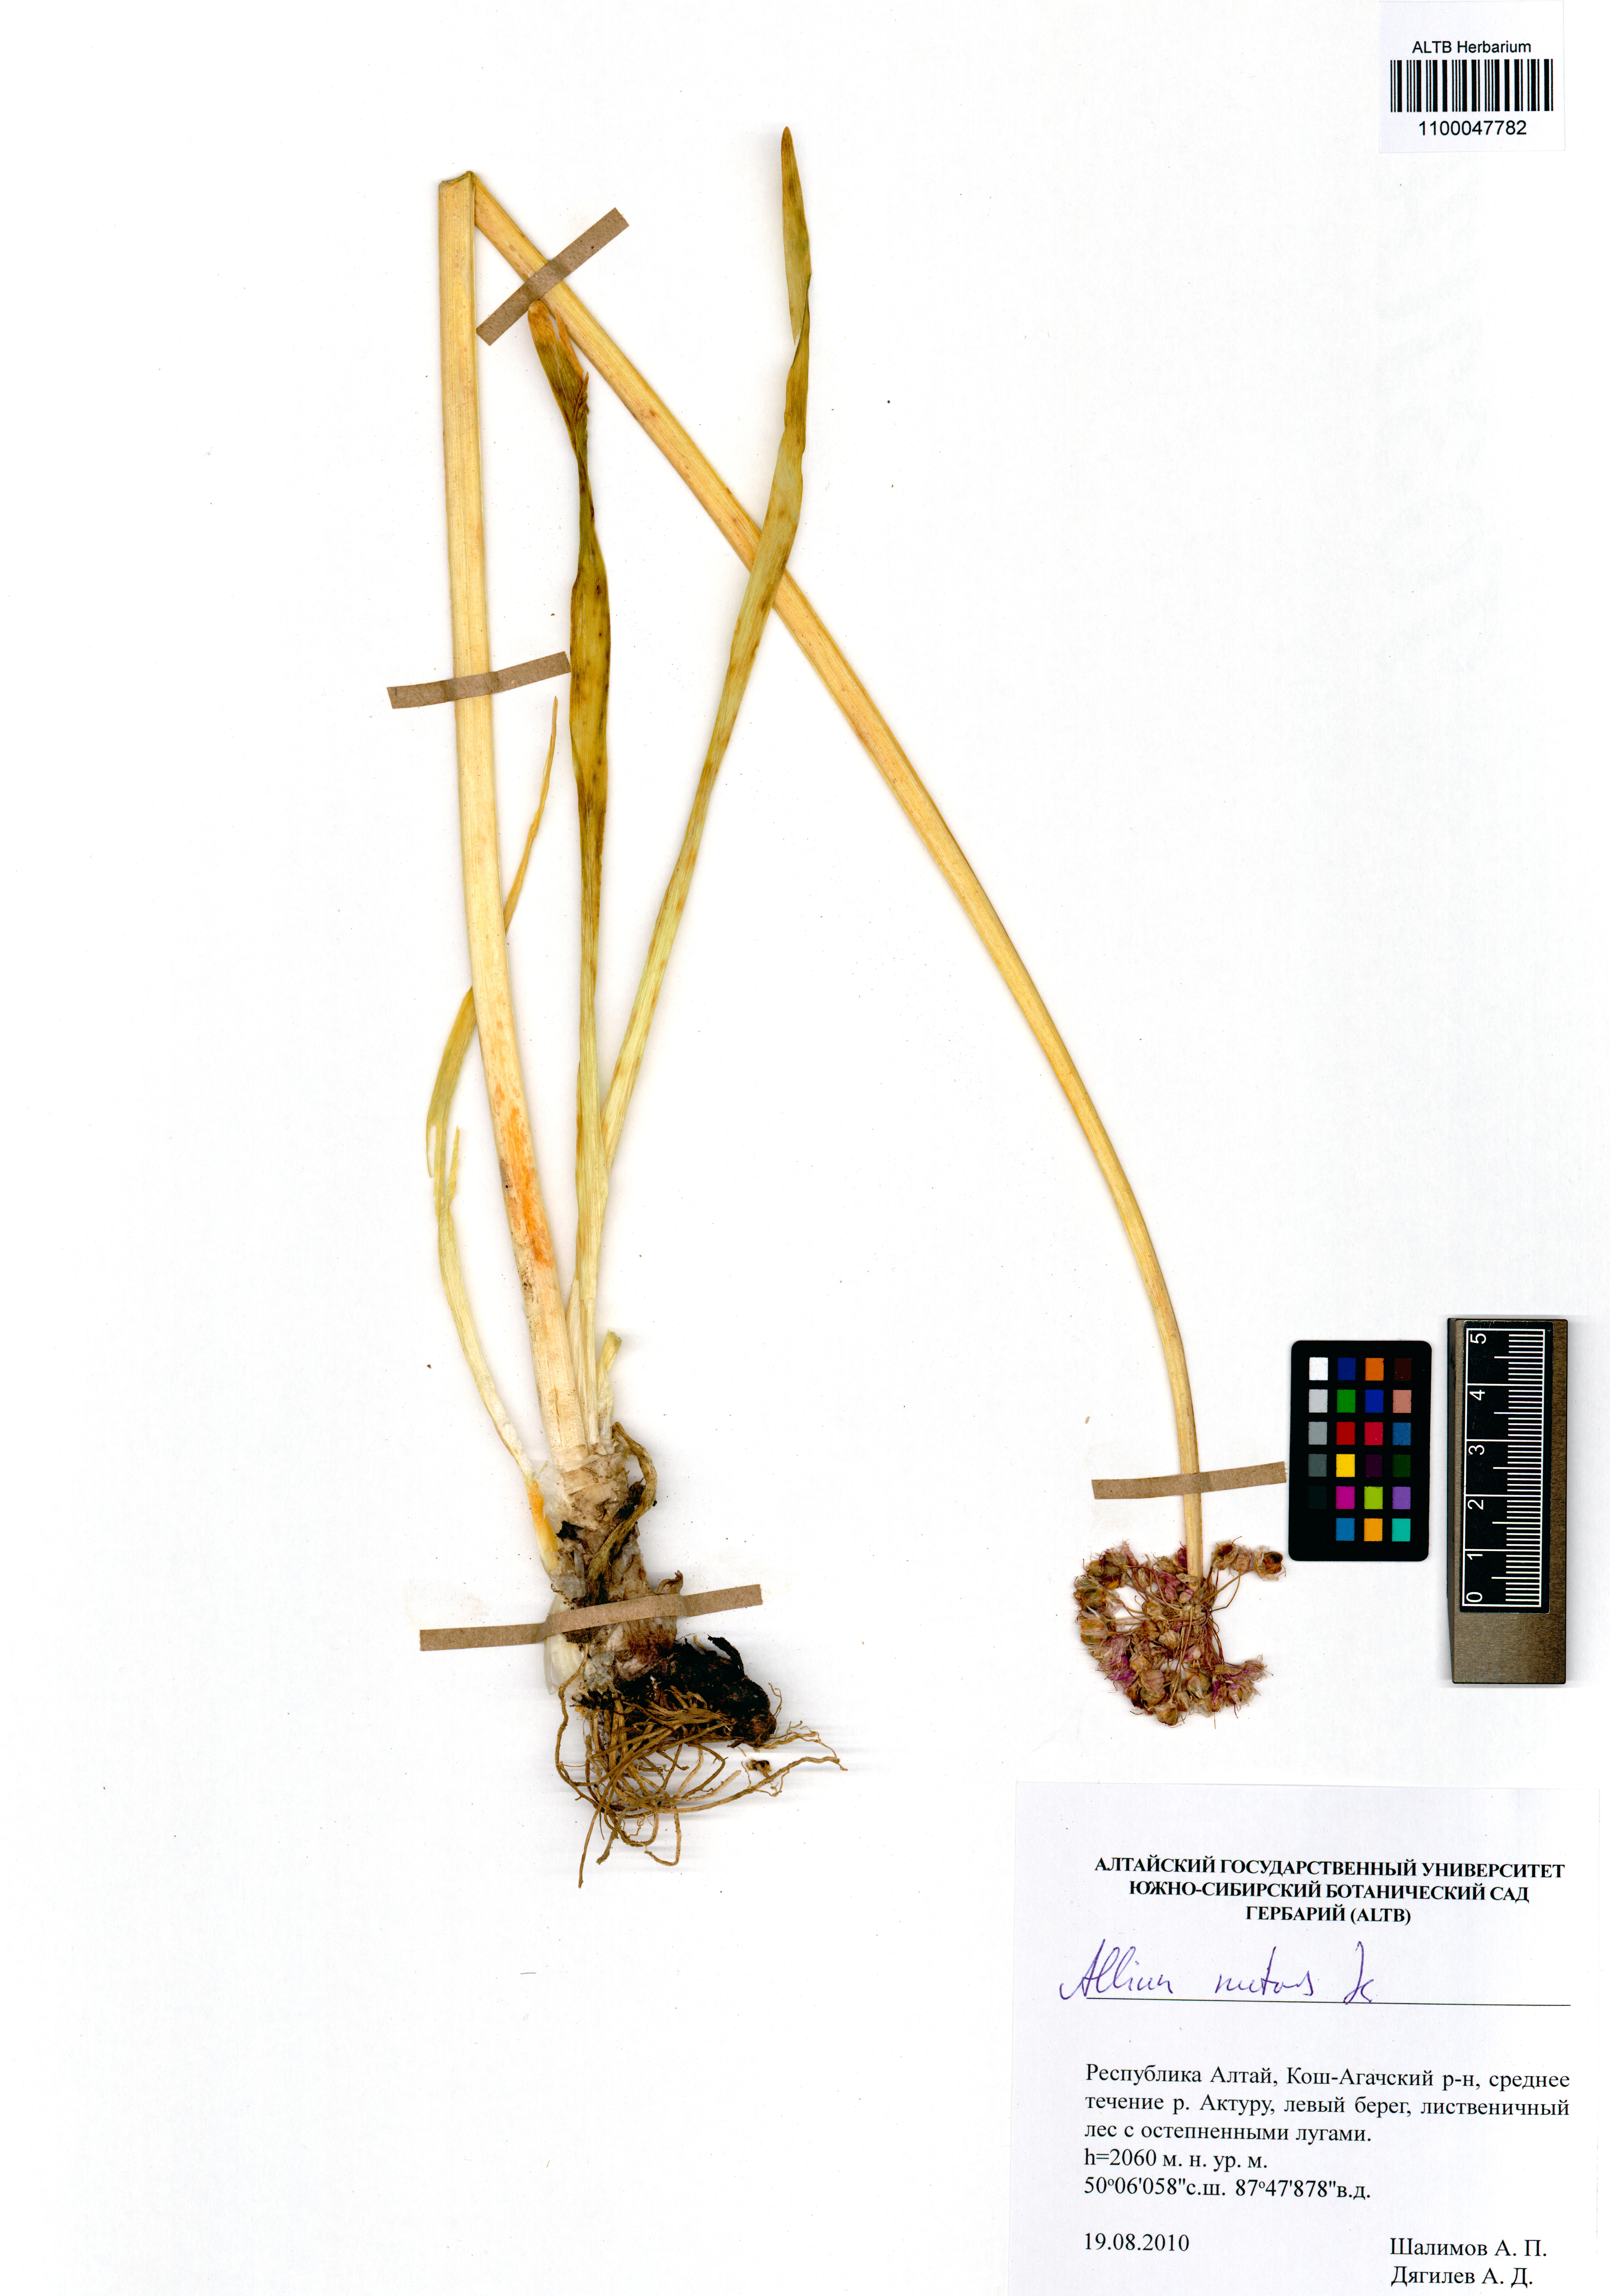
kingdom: Plantae
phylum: Tracheophyta
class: Liliopsida
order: Asparagales
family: Amaryllidaceae
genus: Allium
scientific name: Allium nutans
